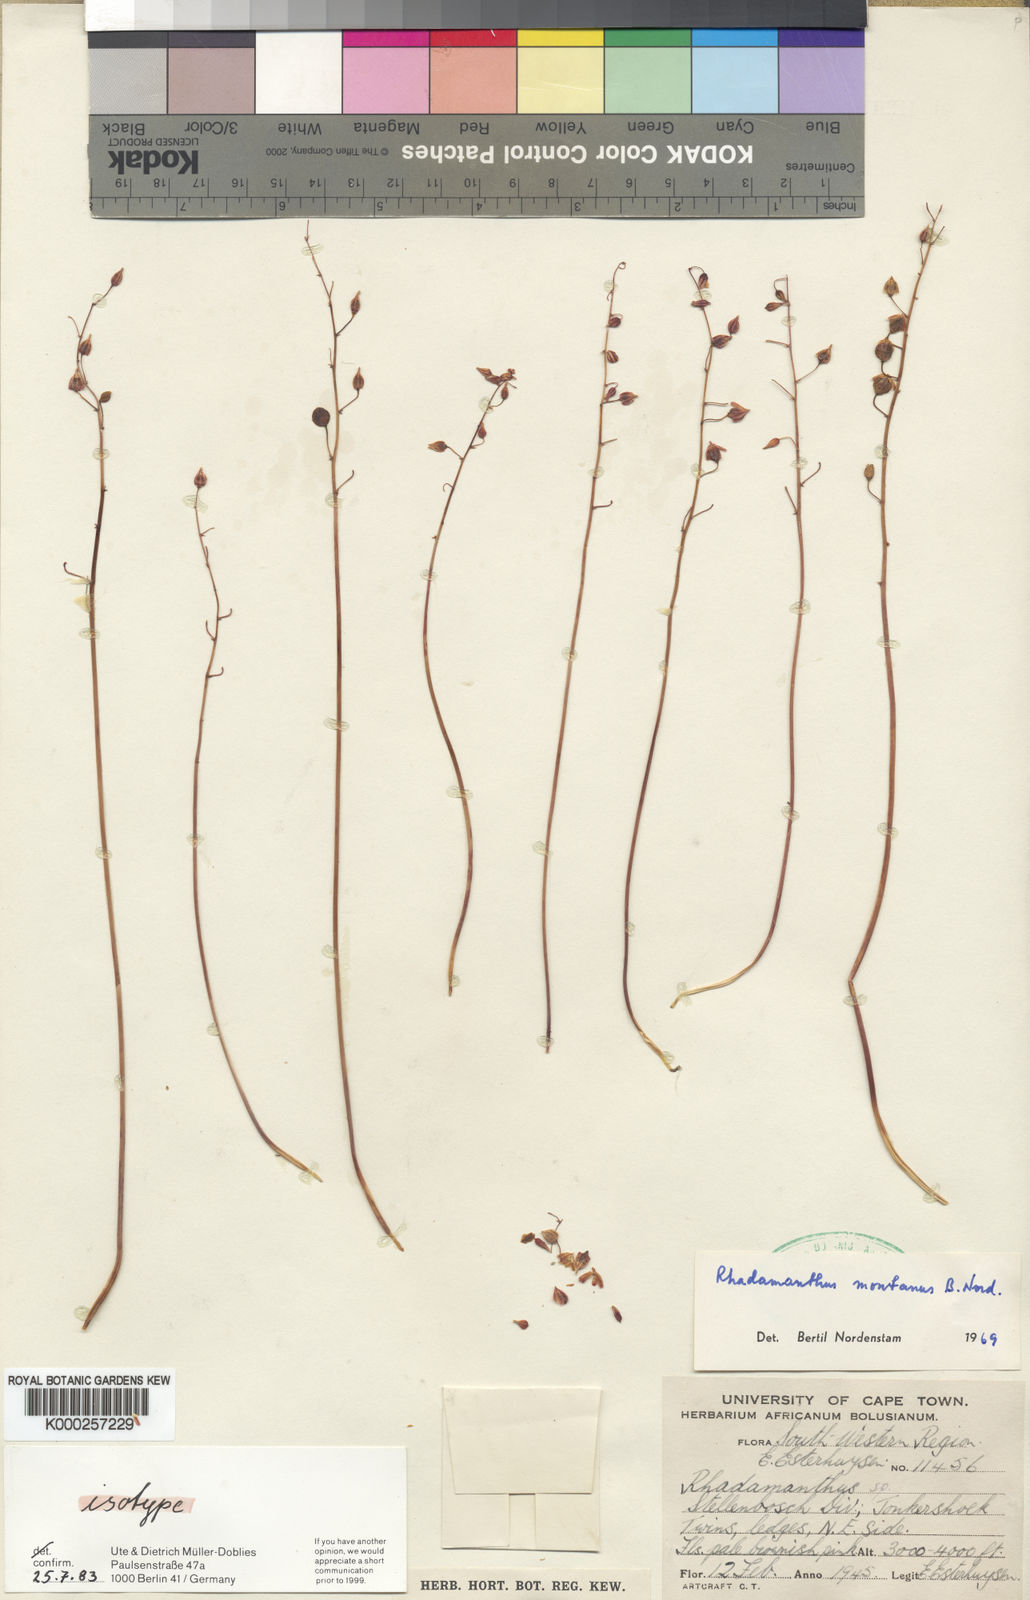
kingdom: Plantae
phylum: Tracheophyta
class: Liliopsida
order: Asparagales
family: Asparagaceae
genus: Drimia
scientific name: Drimia convallarioides
